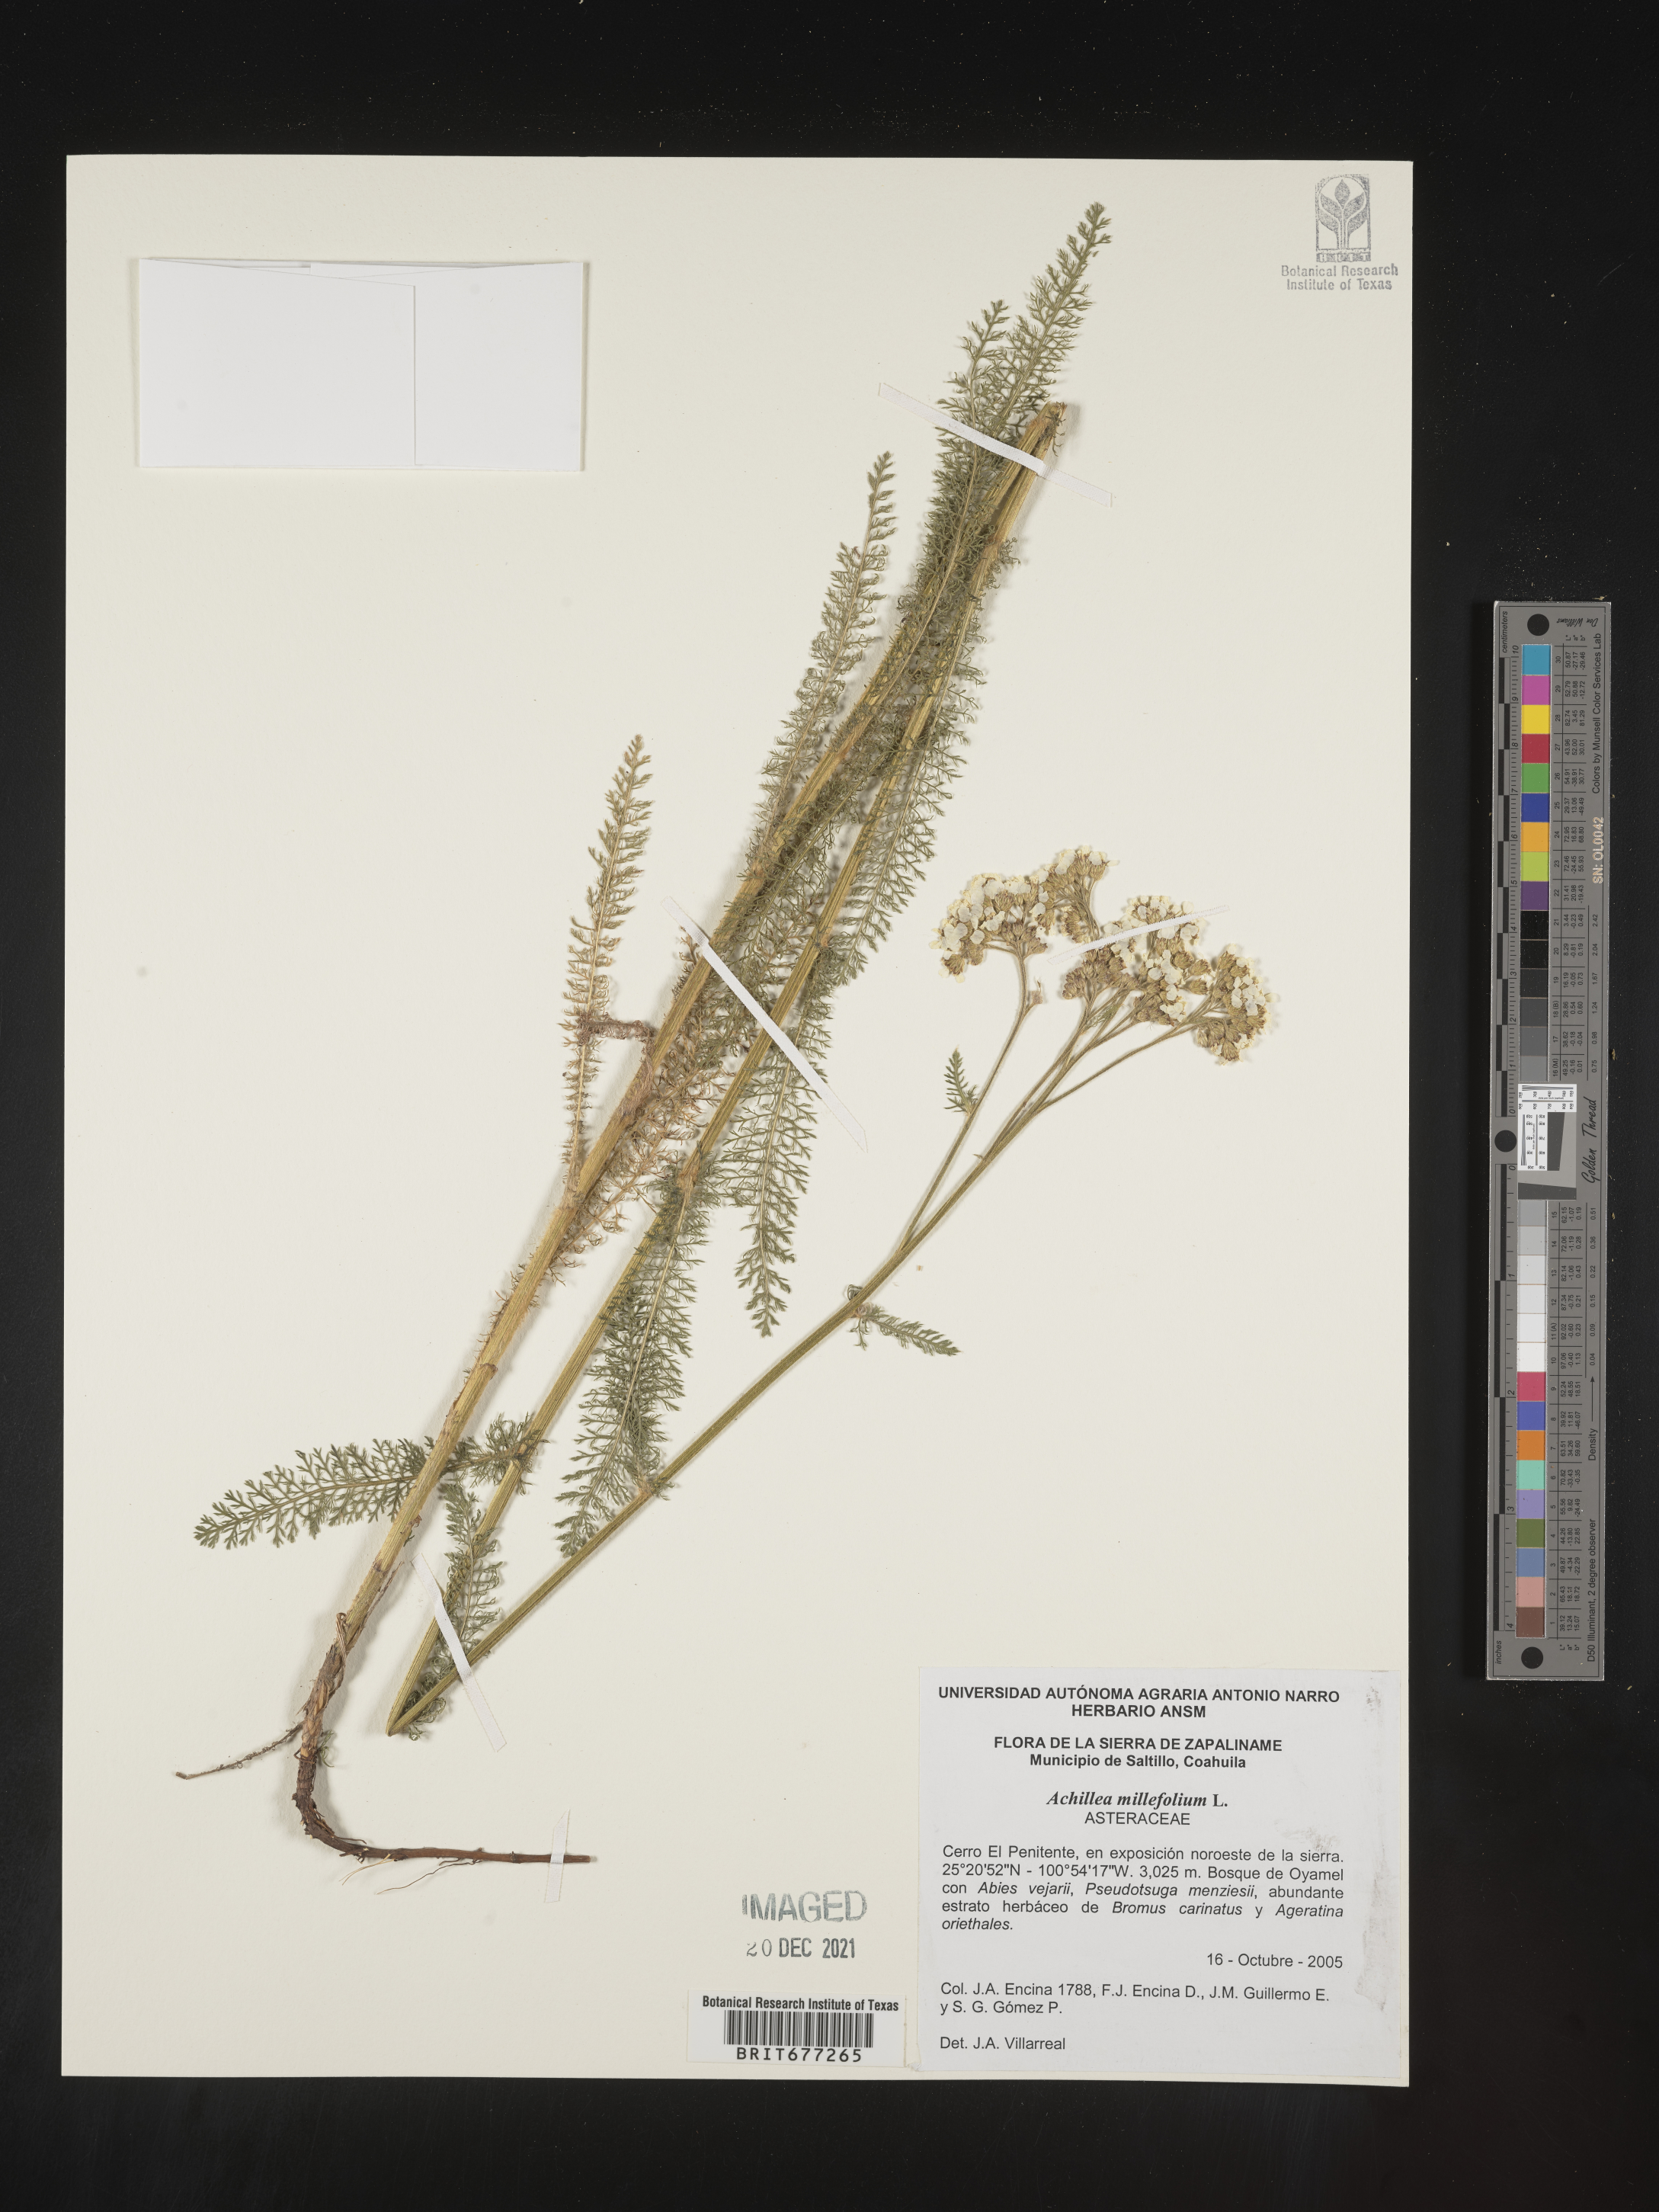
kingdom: Plantae
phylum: Tracheophyta
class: Magnoliopsida
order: Asterales
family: Asteraceae
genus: Achillea
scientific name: Achillea
